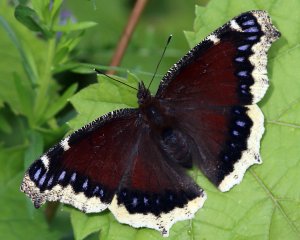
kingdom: Animalia
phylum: Arthropoda
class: Insecta
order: Lepidoptera
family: Nymphalidae
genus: Nymphalis
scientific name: Nymphalis antiopa
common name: Mourning Cloak
